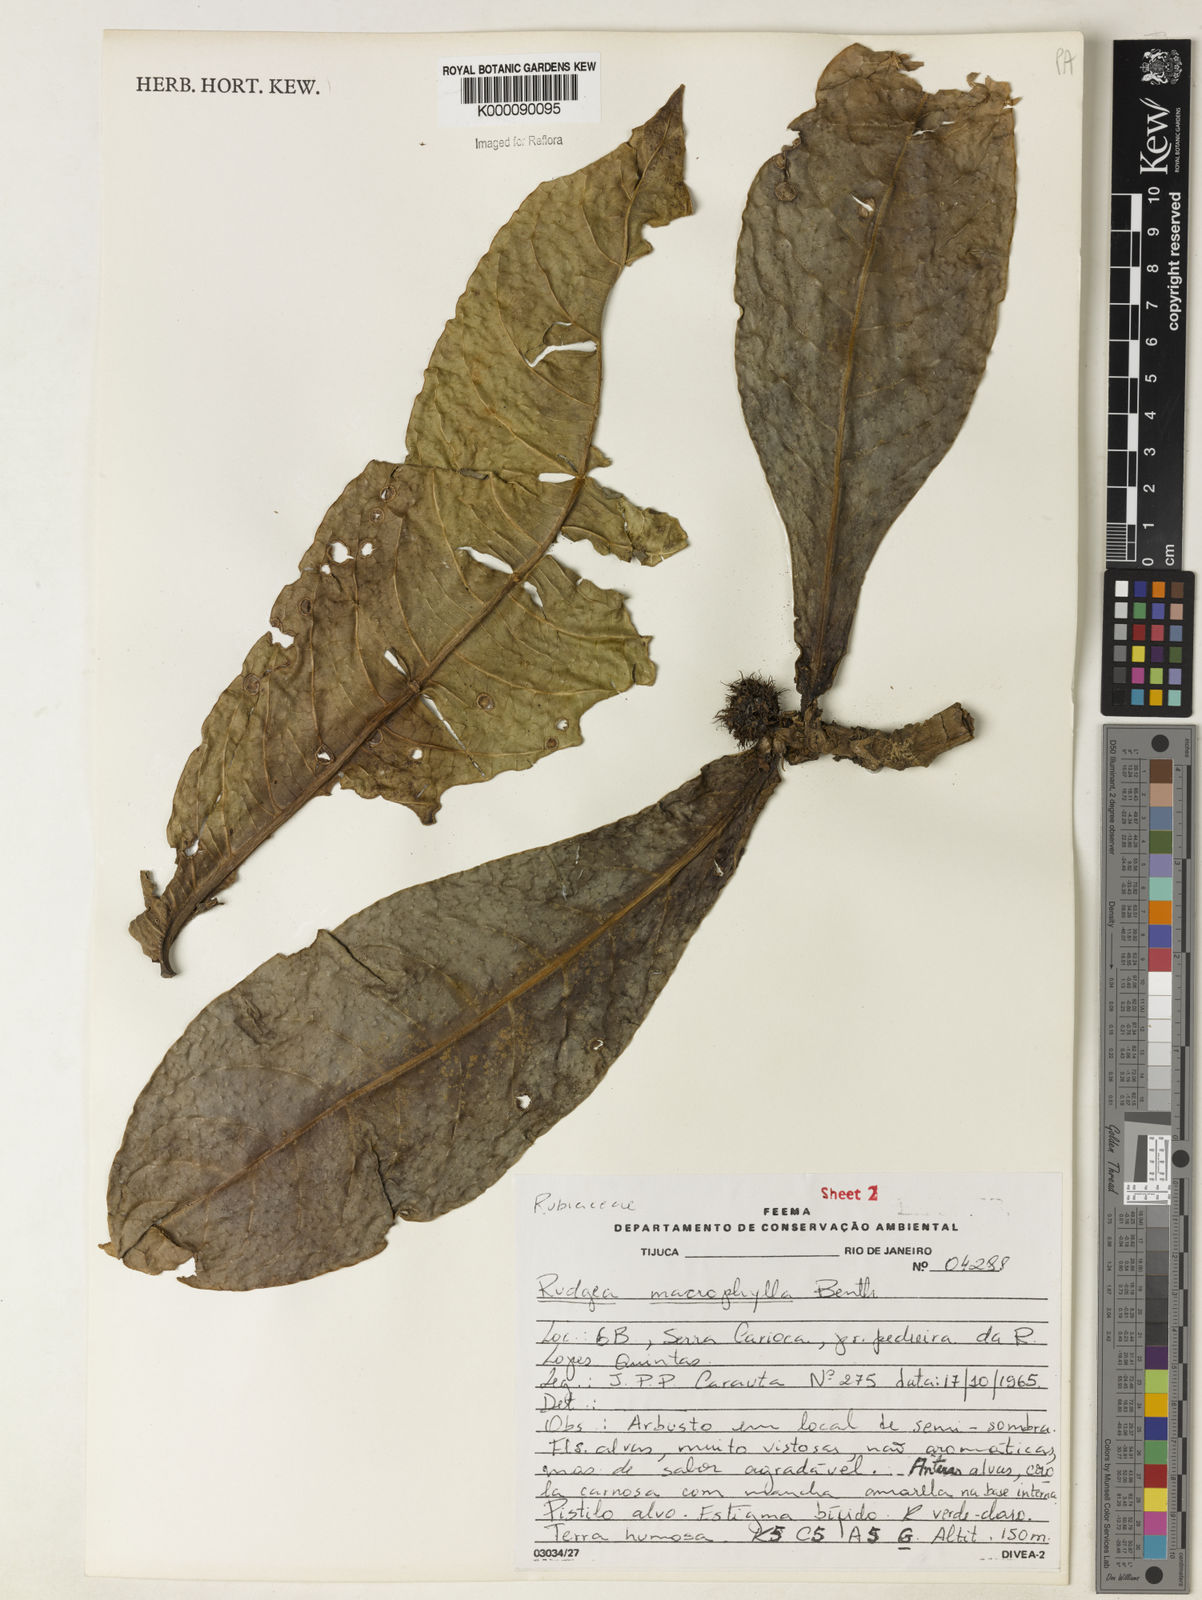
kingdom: Plantae
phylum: Tracheophyta
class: Magnoliopsida
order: Gentianales
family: Rubiaceae
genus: Rudgea
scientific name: Rudgea macrophylla
